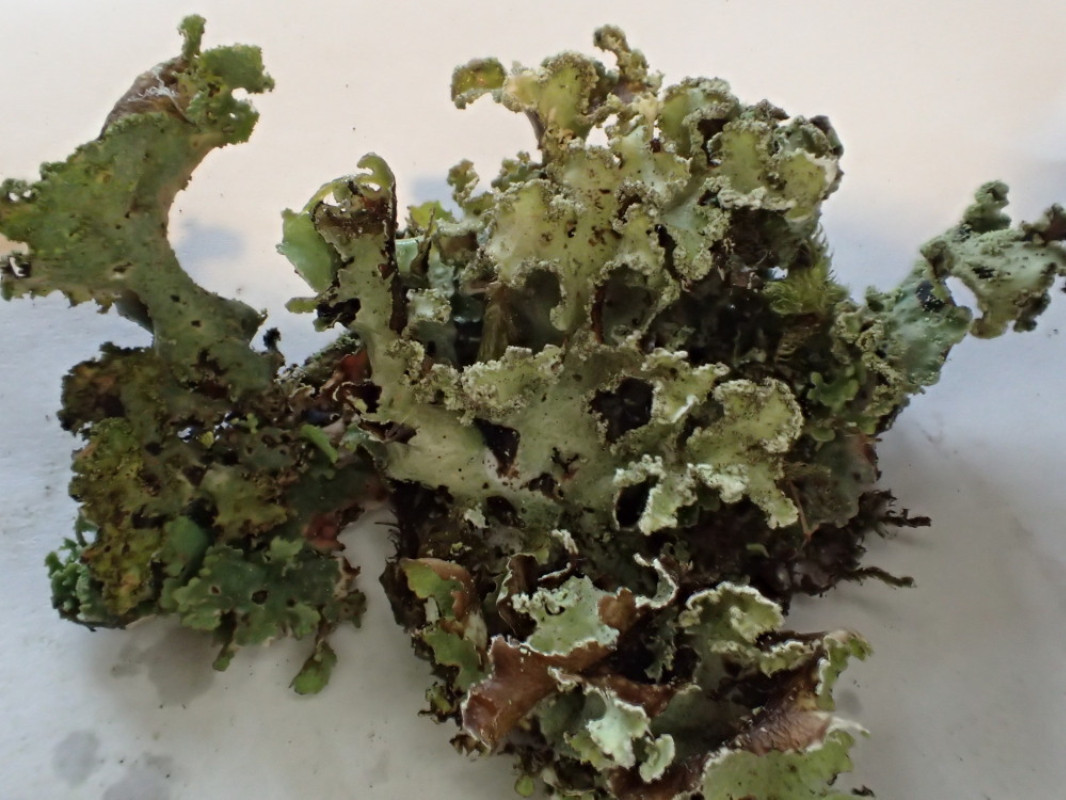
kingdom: Fungi
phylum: Ascomycota
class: Lecanoromycetes
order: Lecanorales
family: Parmeliaceae
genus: Platismatia
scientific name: Platismatia glauca
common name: blågrå papirlav
